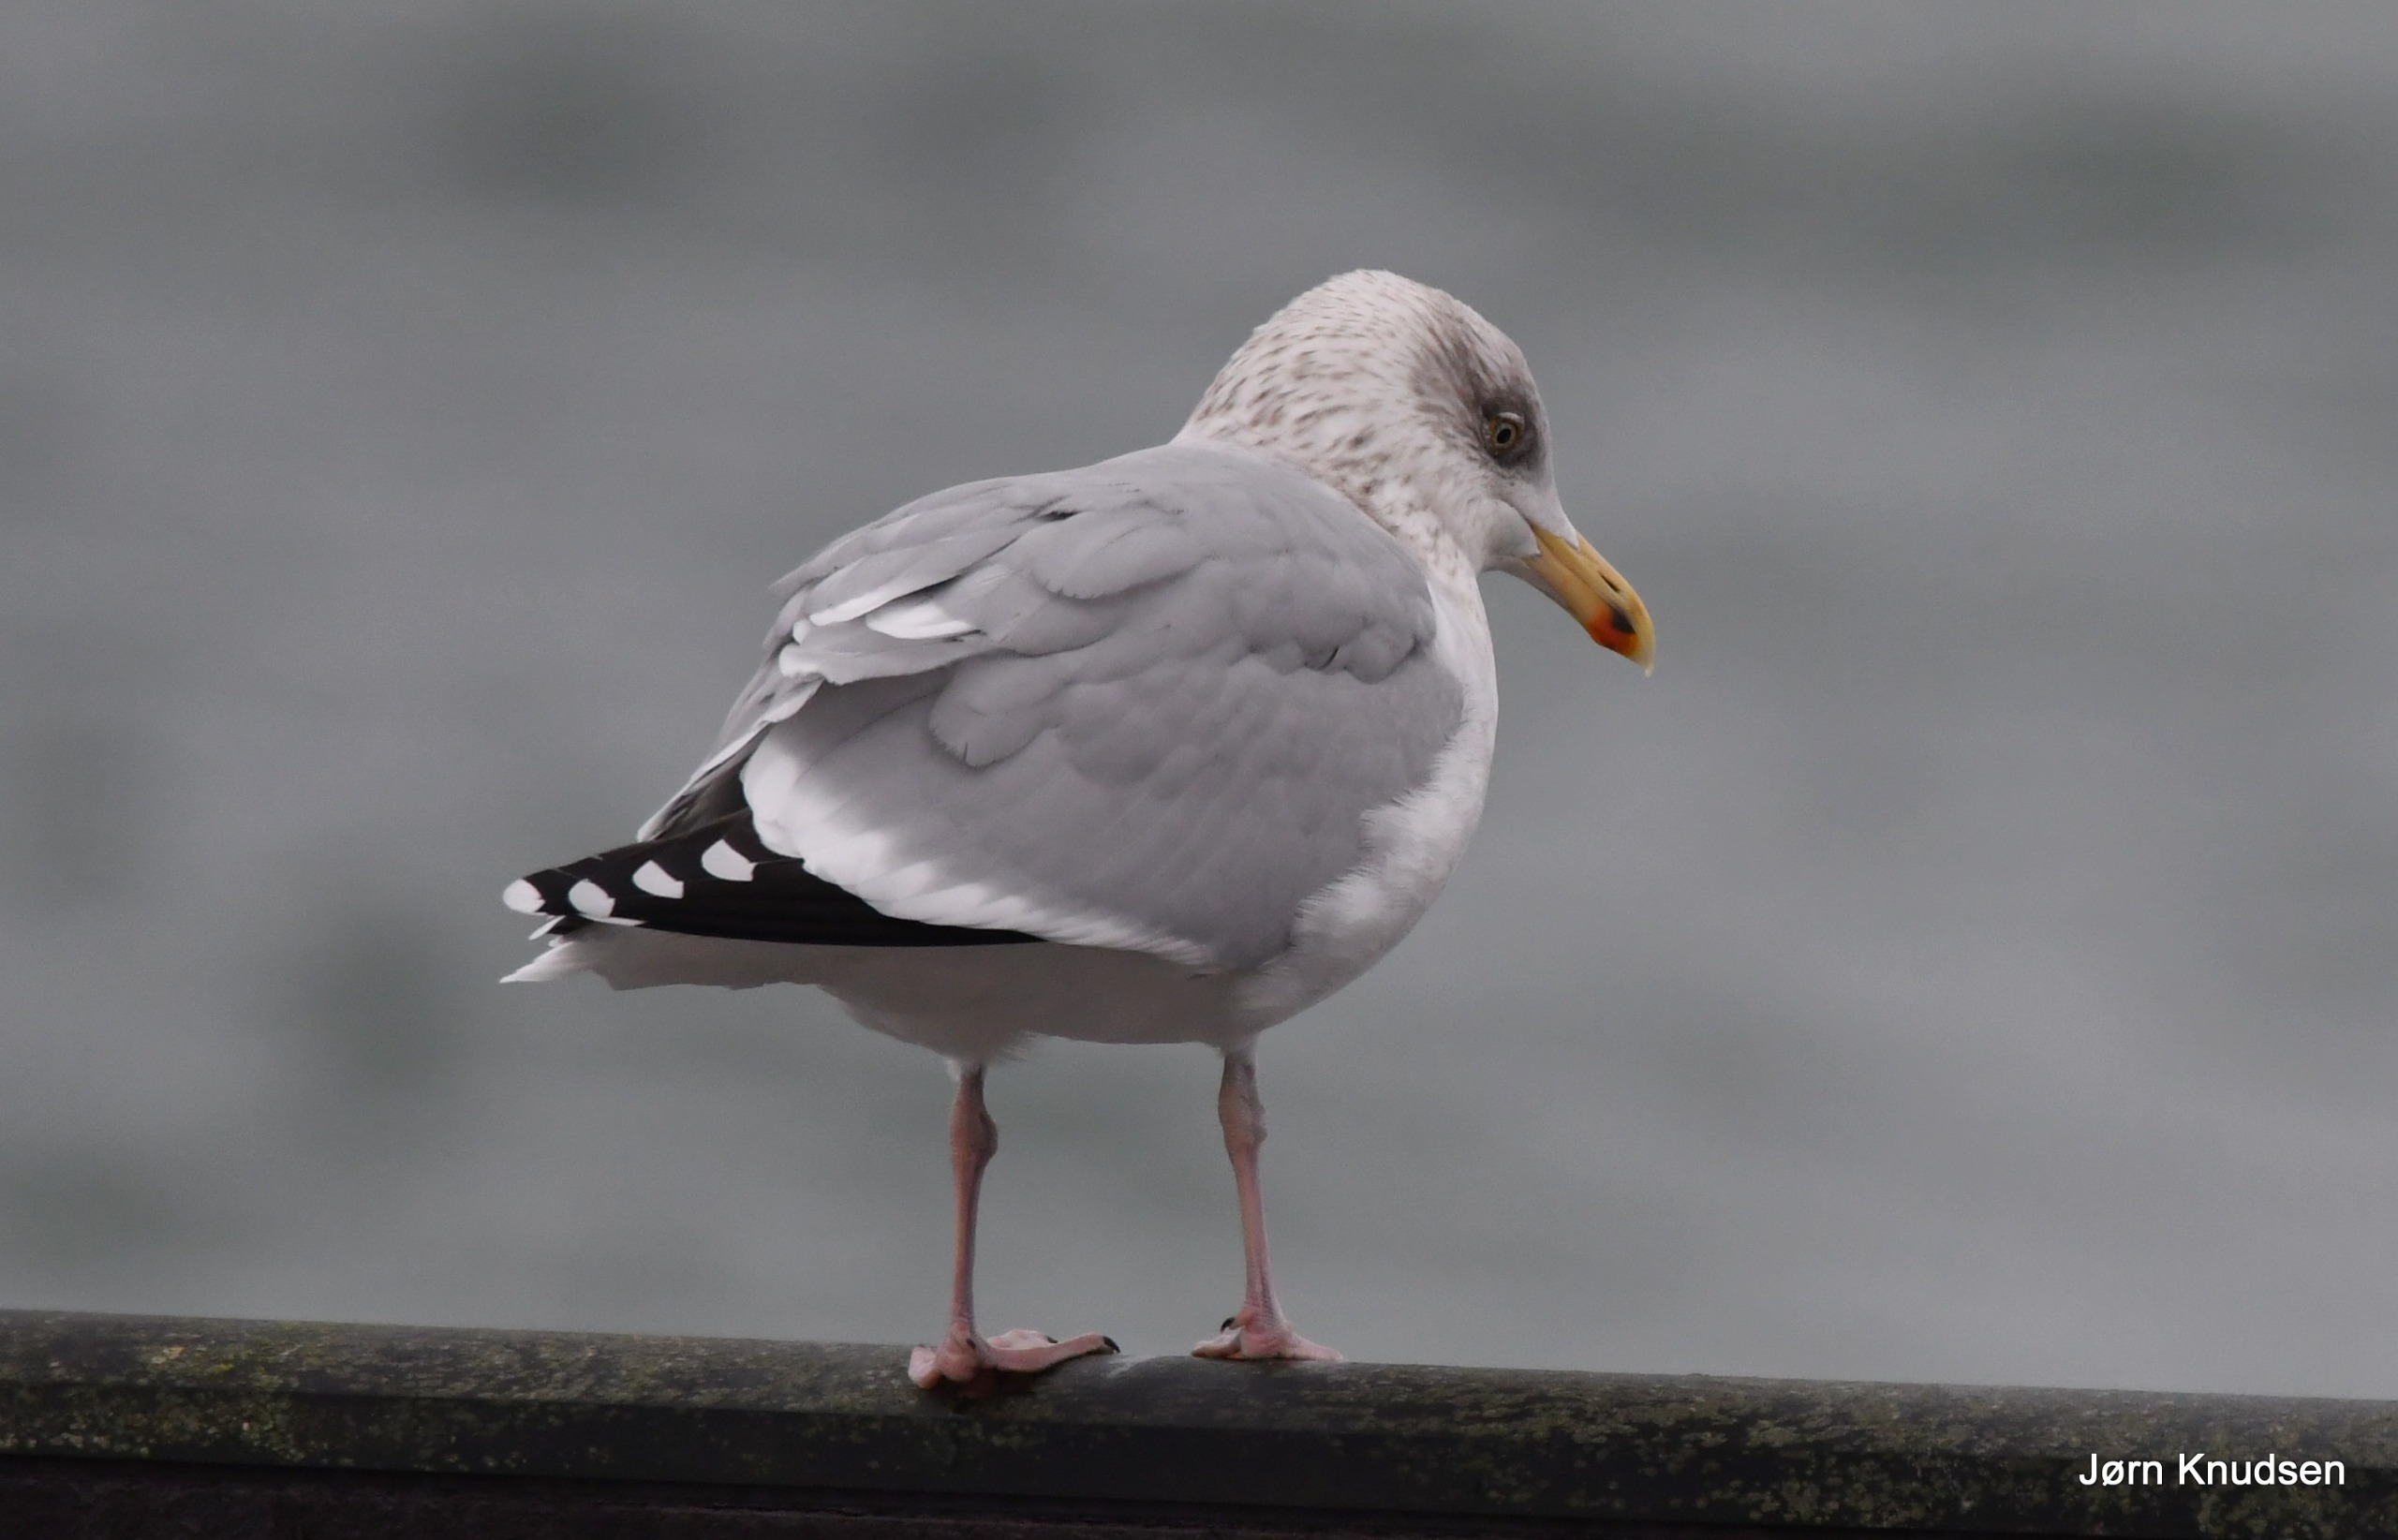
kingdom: Animalia
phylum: Chordata
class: Aves
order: Charadriiformes
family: Laridae
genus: Larus
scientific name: Larus argentatus
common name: Sølvmåge
